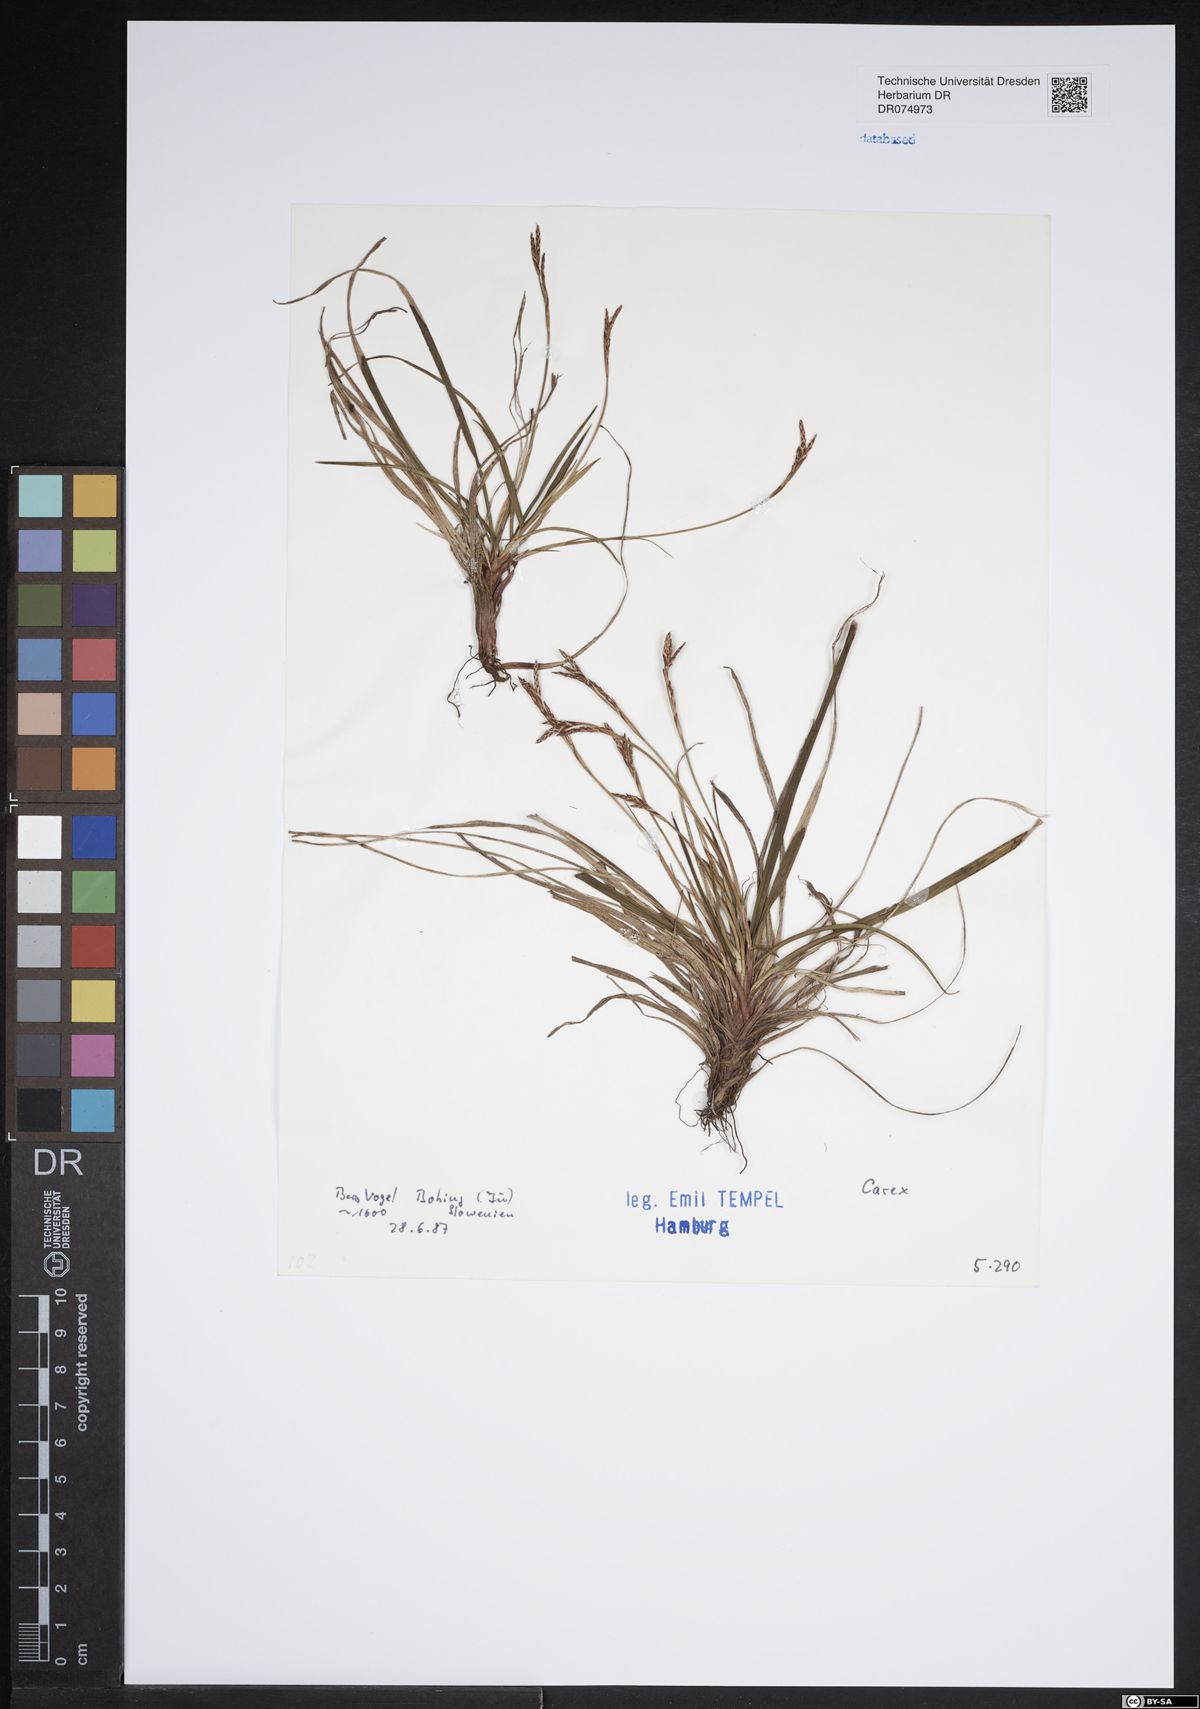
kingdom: Plantae
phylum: Tracheophyta
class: Liliopsida
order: Poales
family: Cyperaceae
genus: Carex
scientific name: Carex
